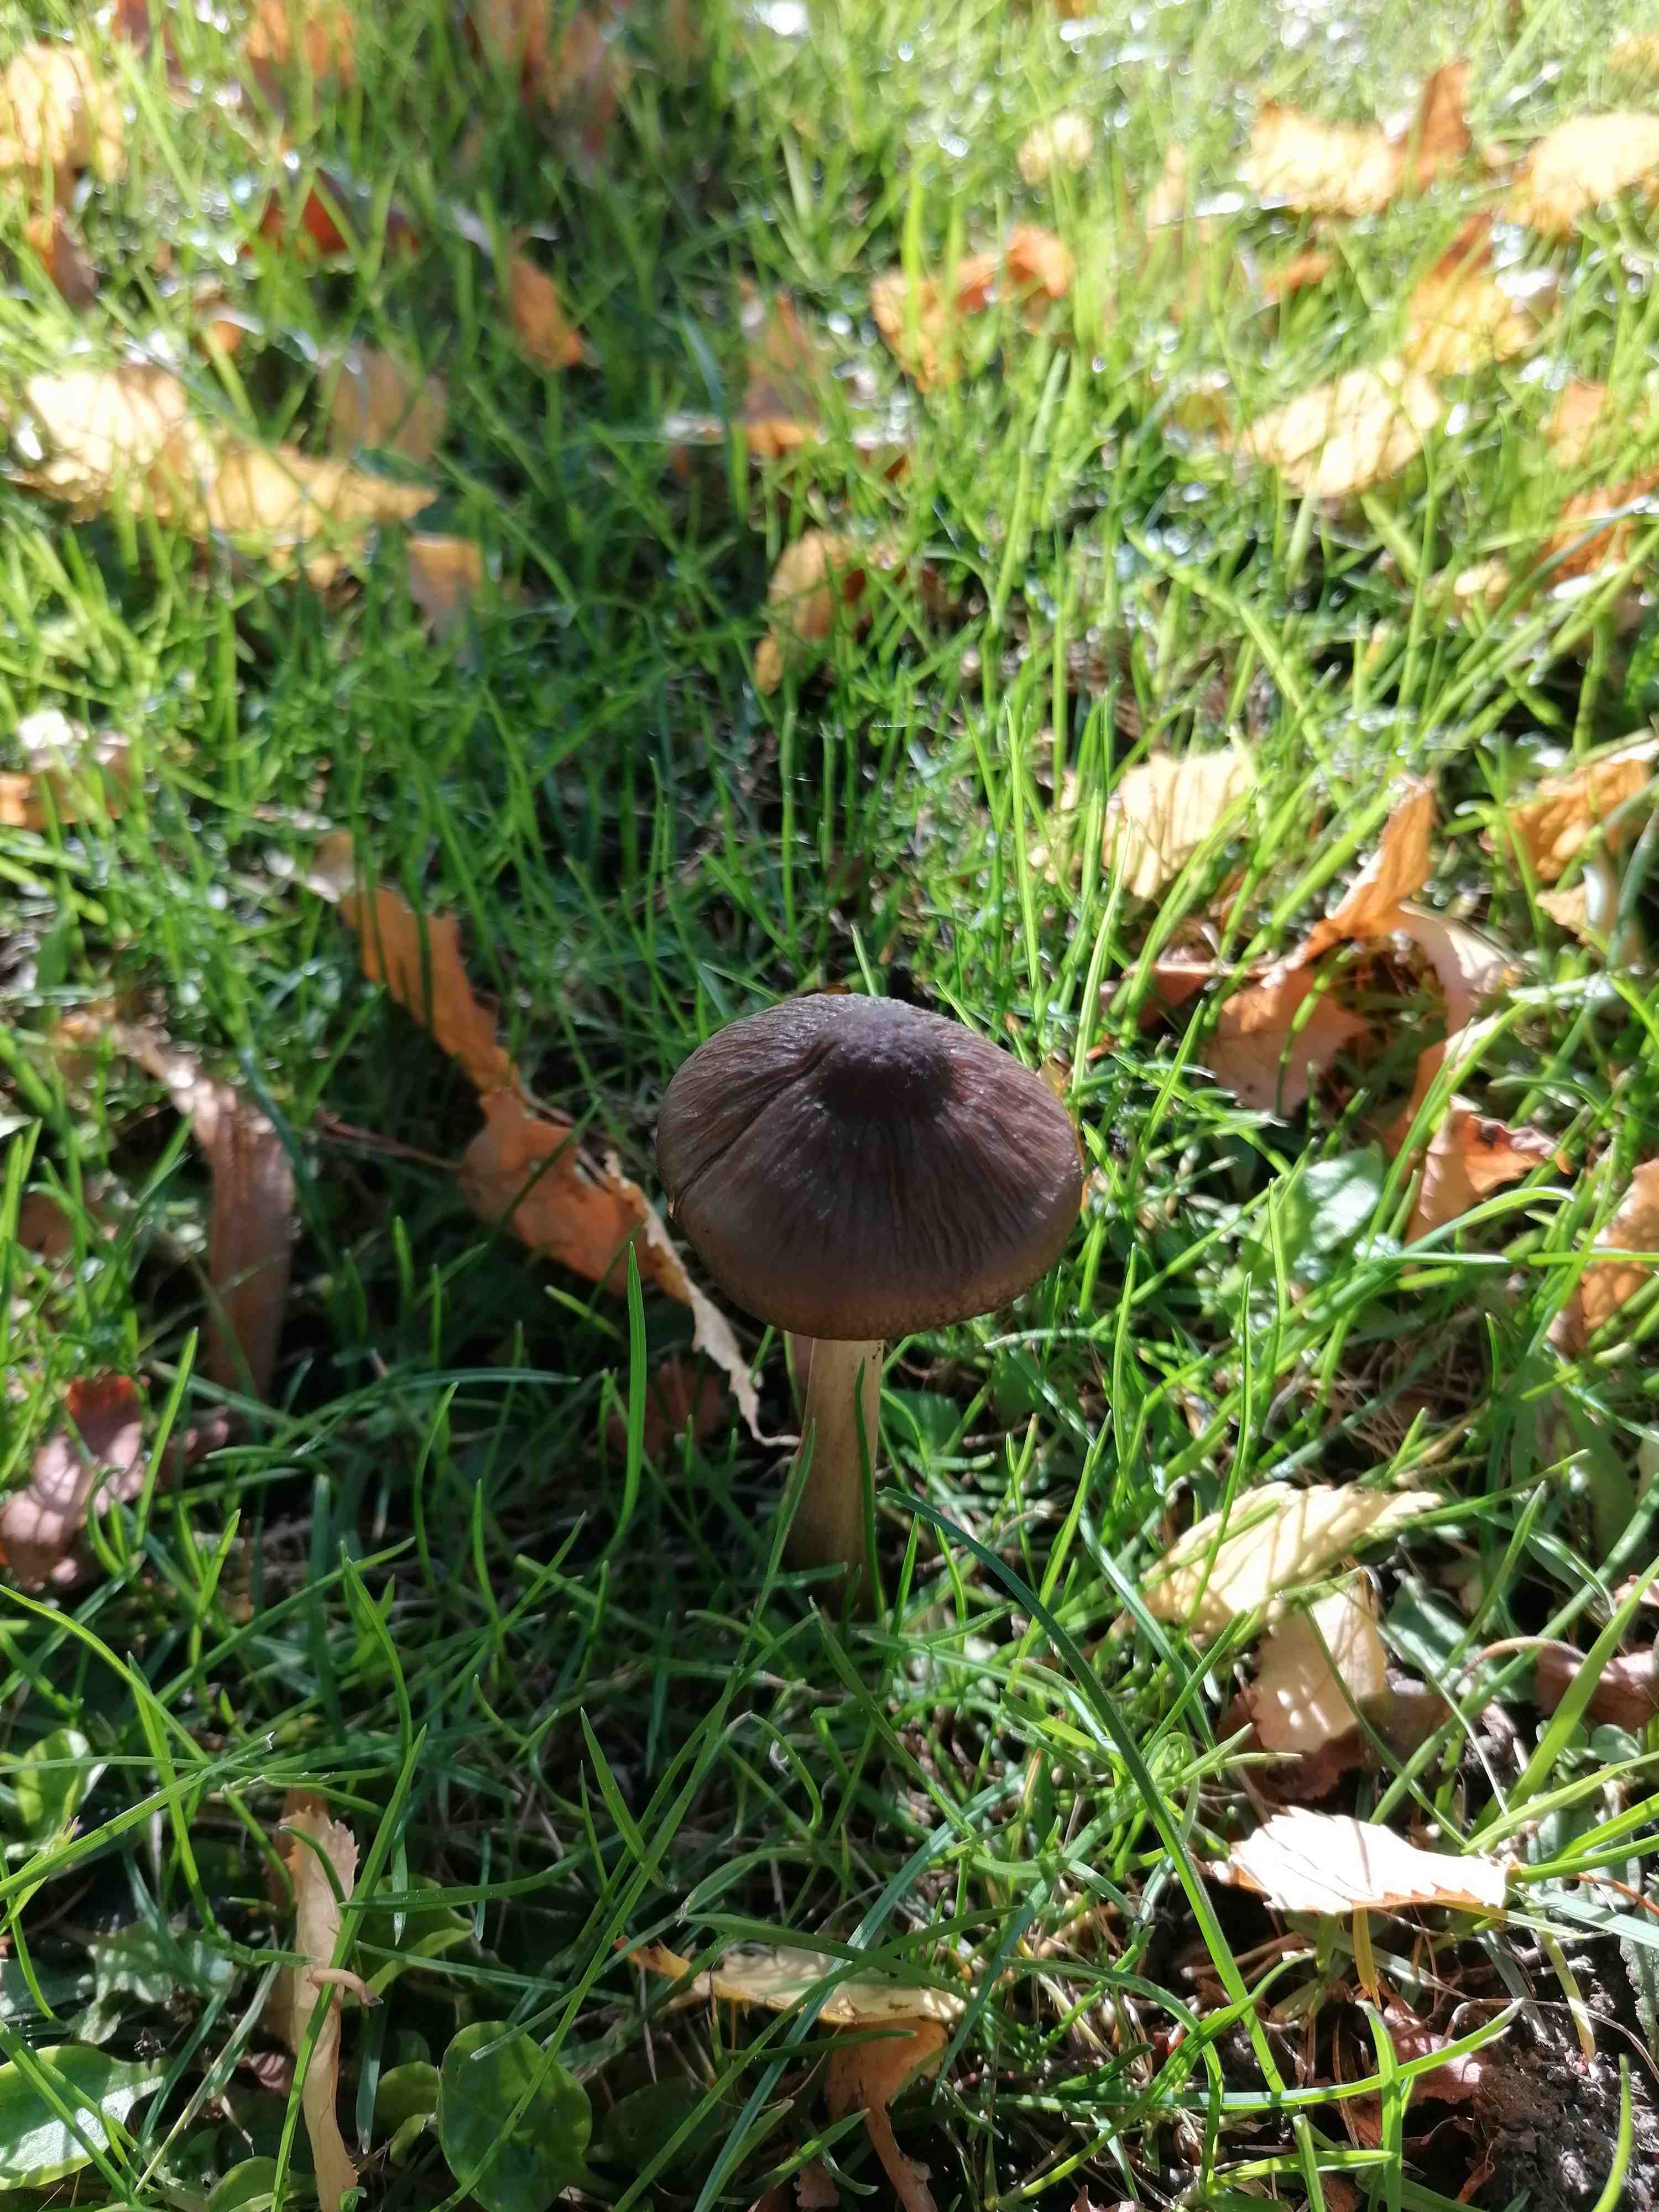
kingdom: Fungi
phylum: Basidiomycota
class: Agaricomycetes
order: Agaricales
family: Physalacriaceae
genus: Hymenopellis
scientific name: Hymenopellis radicata
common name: almindelig pælerodshat
